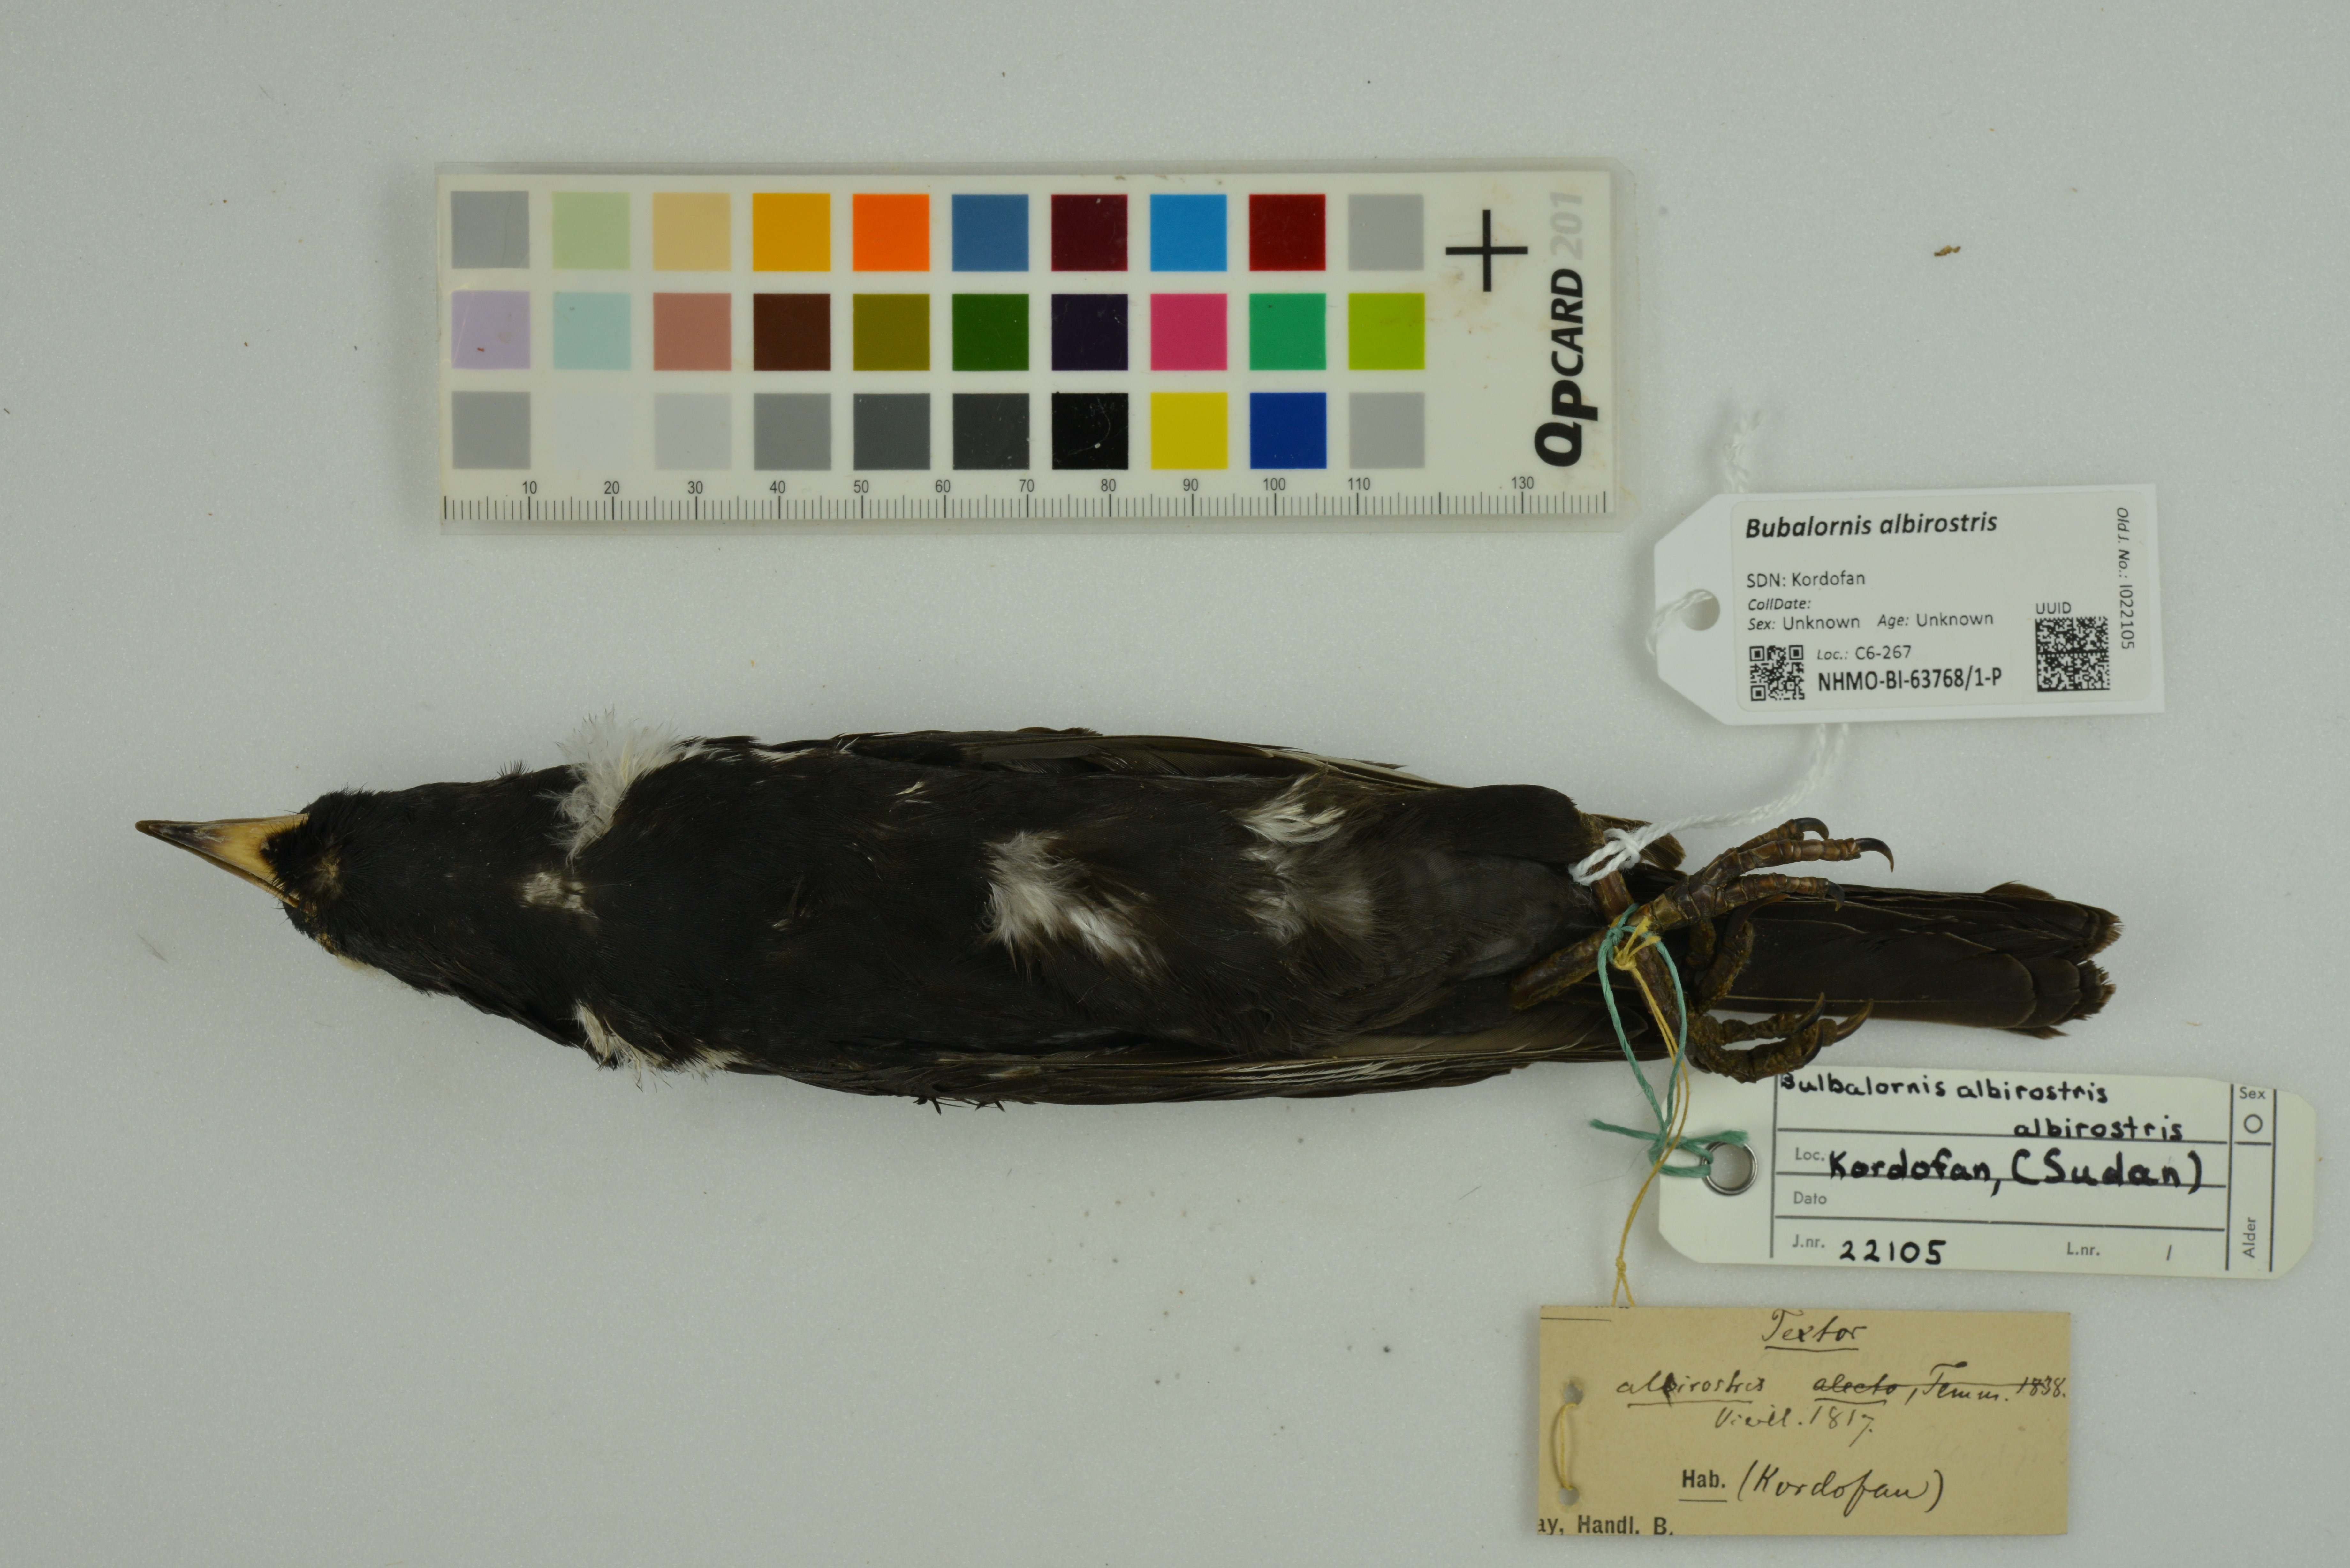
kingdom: Animalia
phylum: Chordata
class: Aves
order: Passeriformes
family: Ploceidae
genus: Bubalornis
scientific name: Bubalornis albirostris
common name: White-billed buffalo weaver
